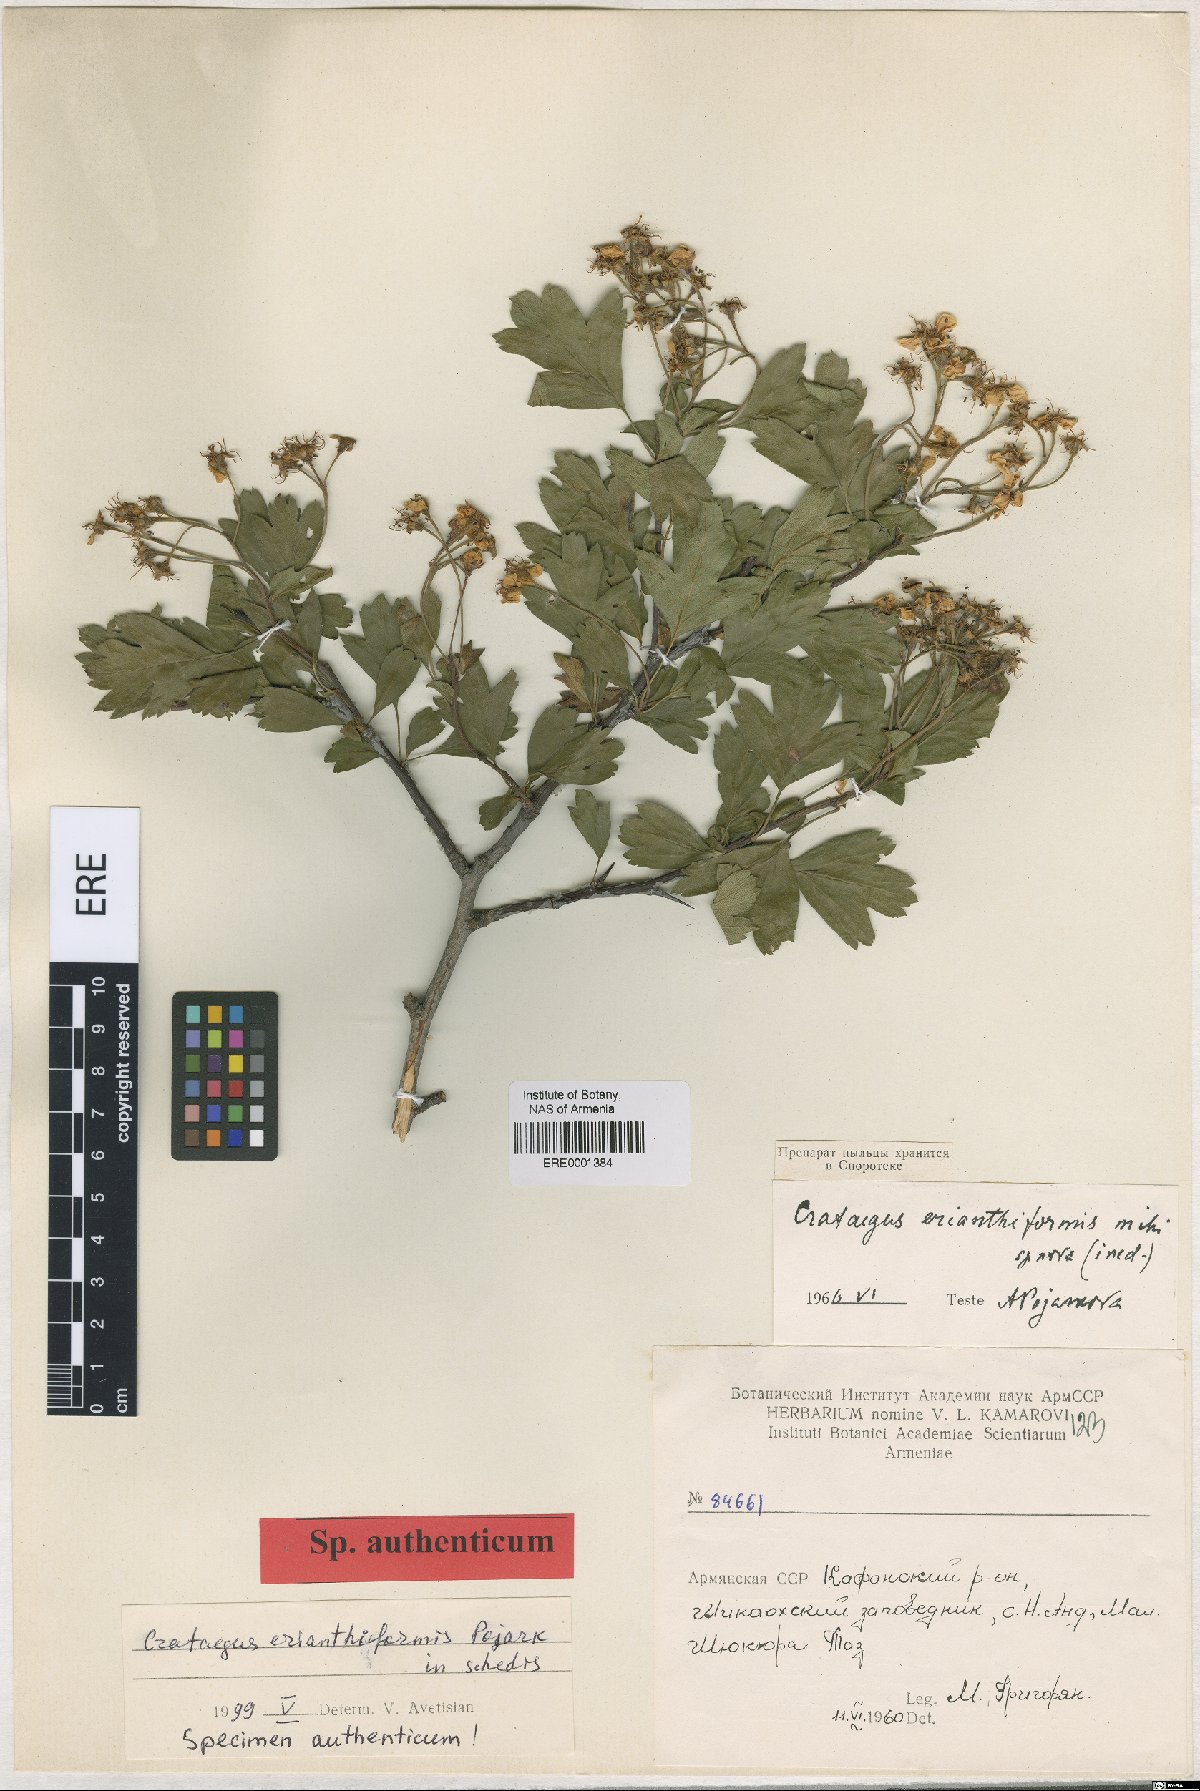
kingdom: Plantae
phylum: Tracheophyta
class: Magnoliopsida
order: Rosales
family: Rosaceae
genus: Crataegus
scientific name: Crataegus
